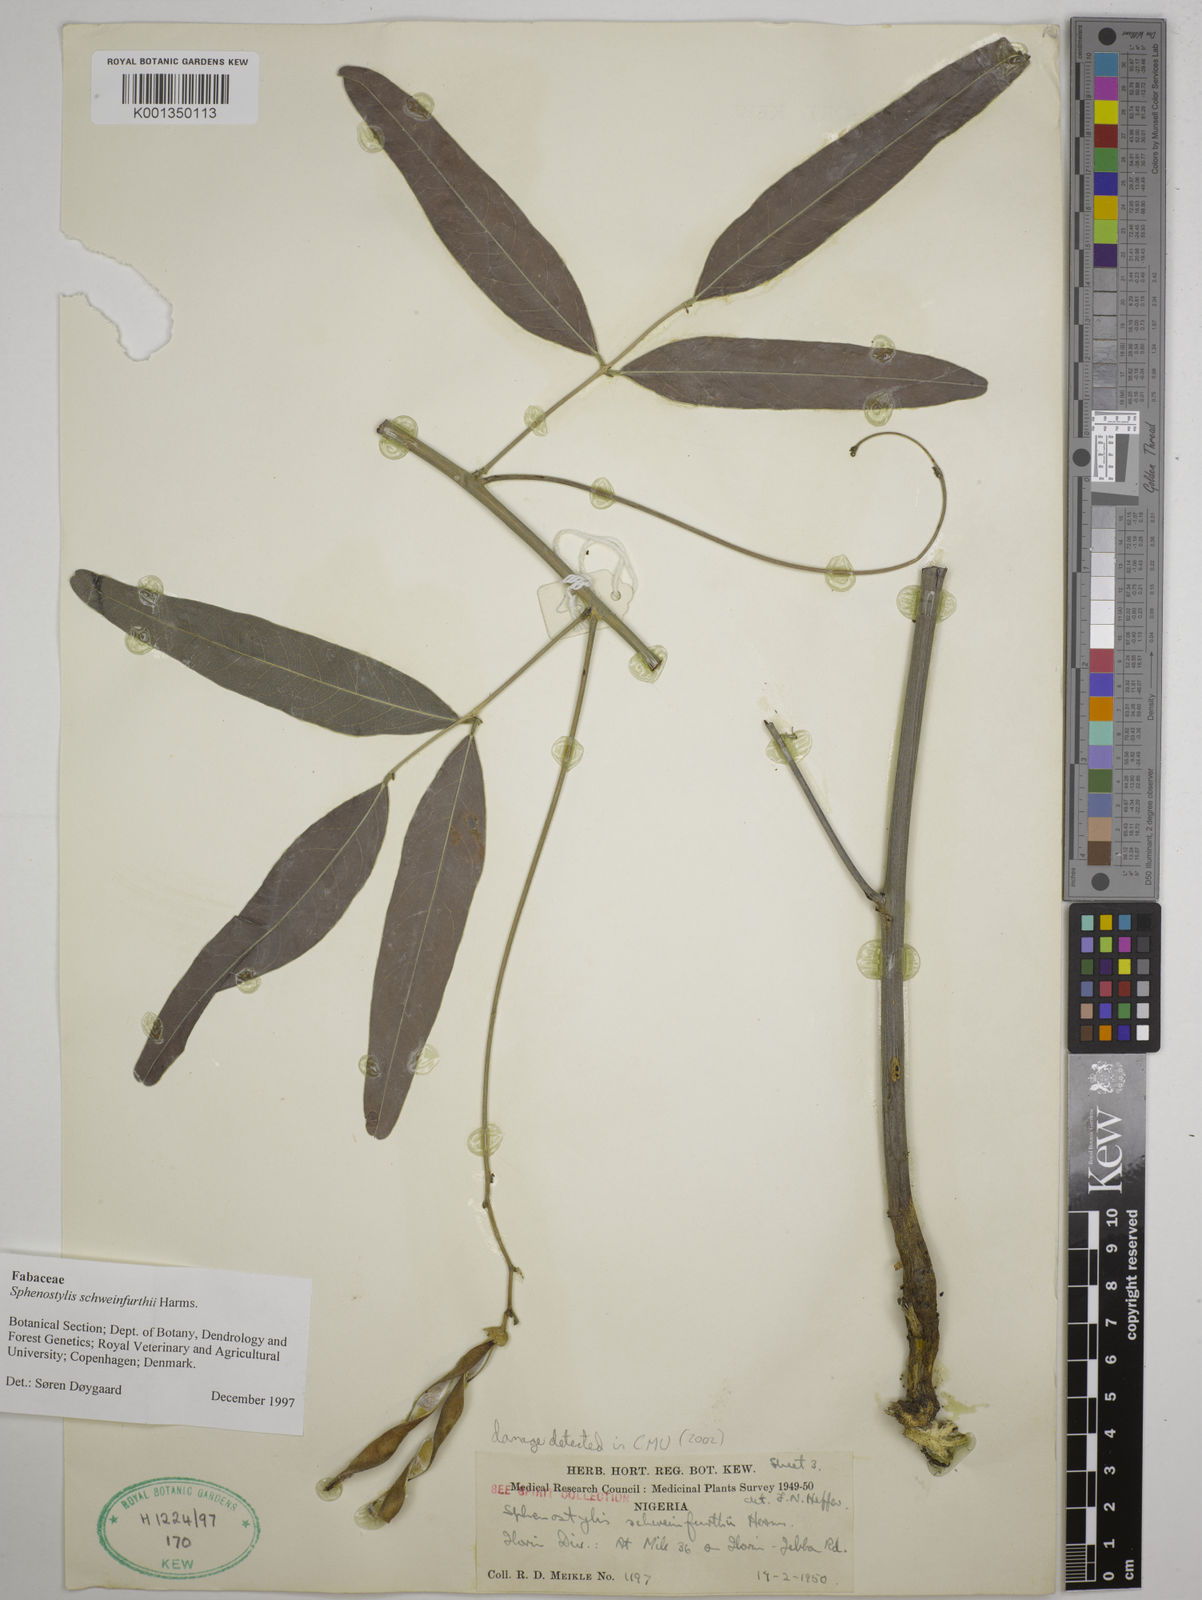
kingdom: Plantae
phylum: Tracheophyta
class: Magnoliopsida
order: Fabales
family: Fabaceae
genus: Sphenostylis
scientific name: Sphenostylis schweinfurthii
